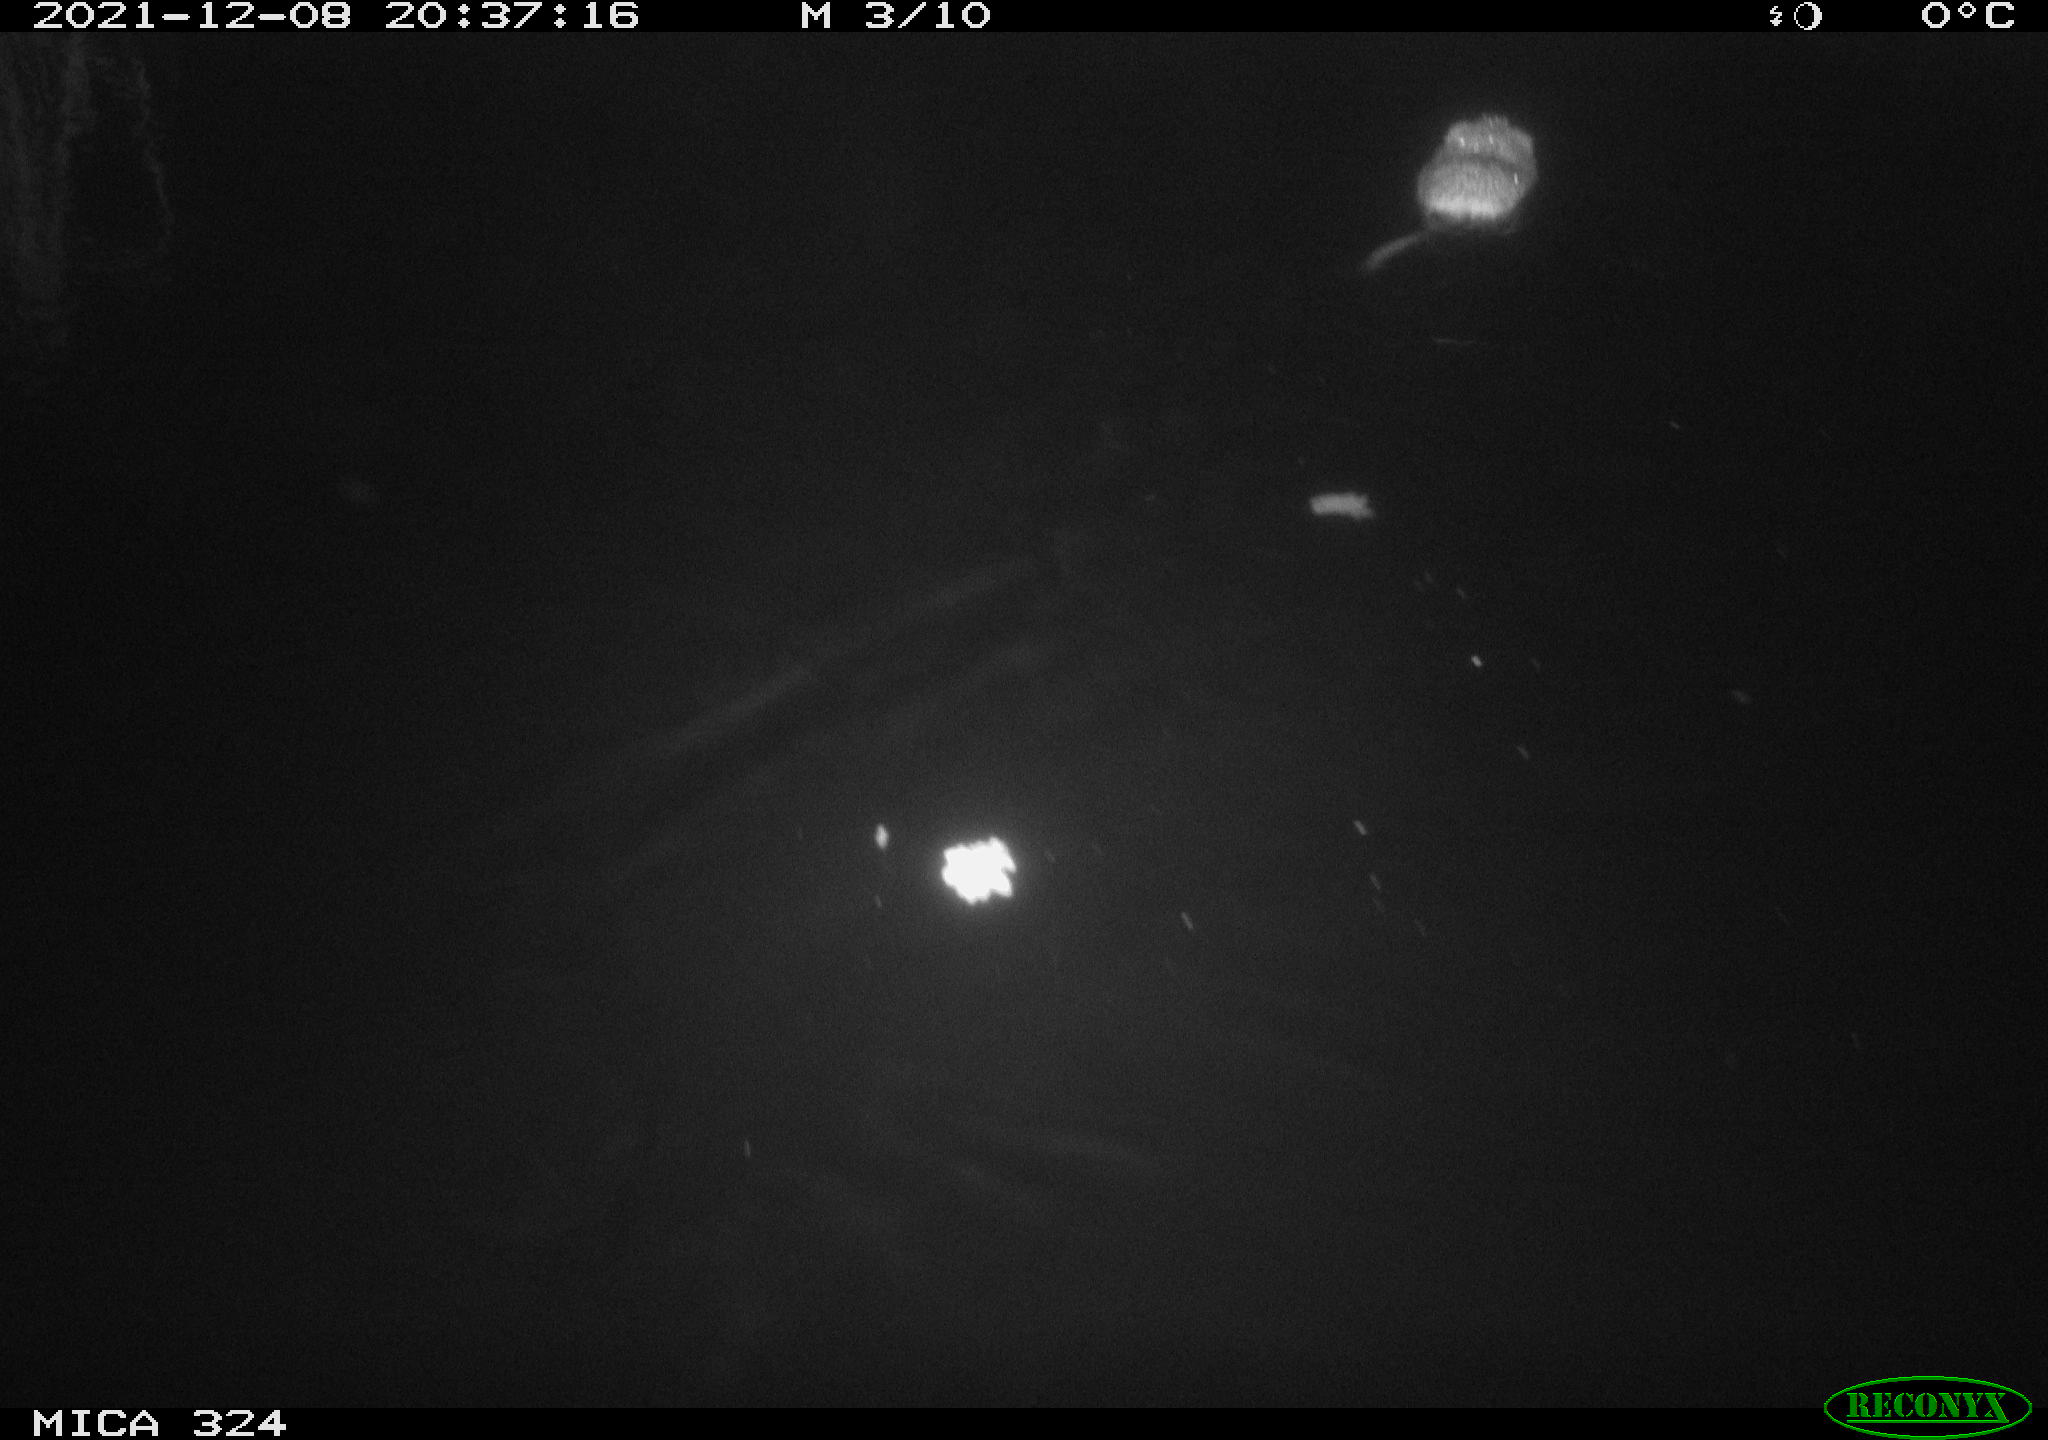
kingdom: Animalia
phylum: Chordata
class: Mammalia
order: Rodentia
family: Cricetidae
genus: Ondatra
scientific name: Ondatra zibethicus
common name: Muskrat
